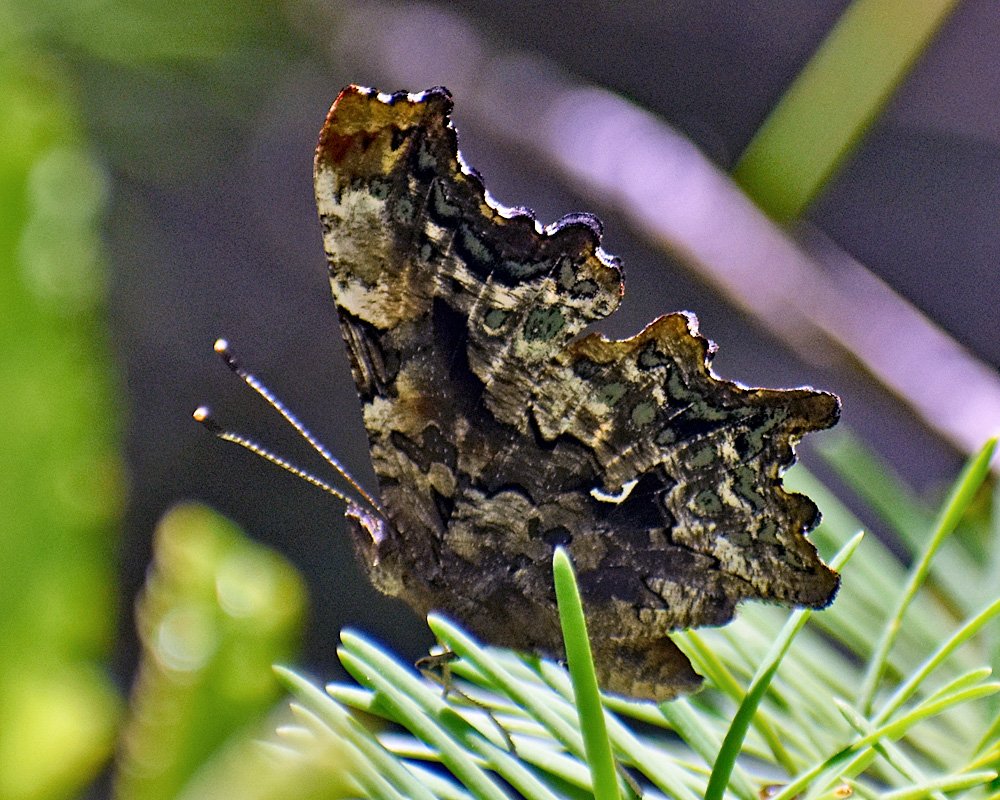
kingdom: Animalia
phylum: Arthropoda
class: Insecta
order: Lepidoptera
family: Nymphalidae
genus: Polygonia
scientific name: Polygonia faunus
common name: Green Comma
